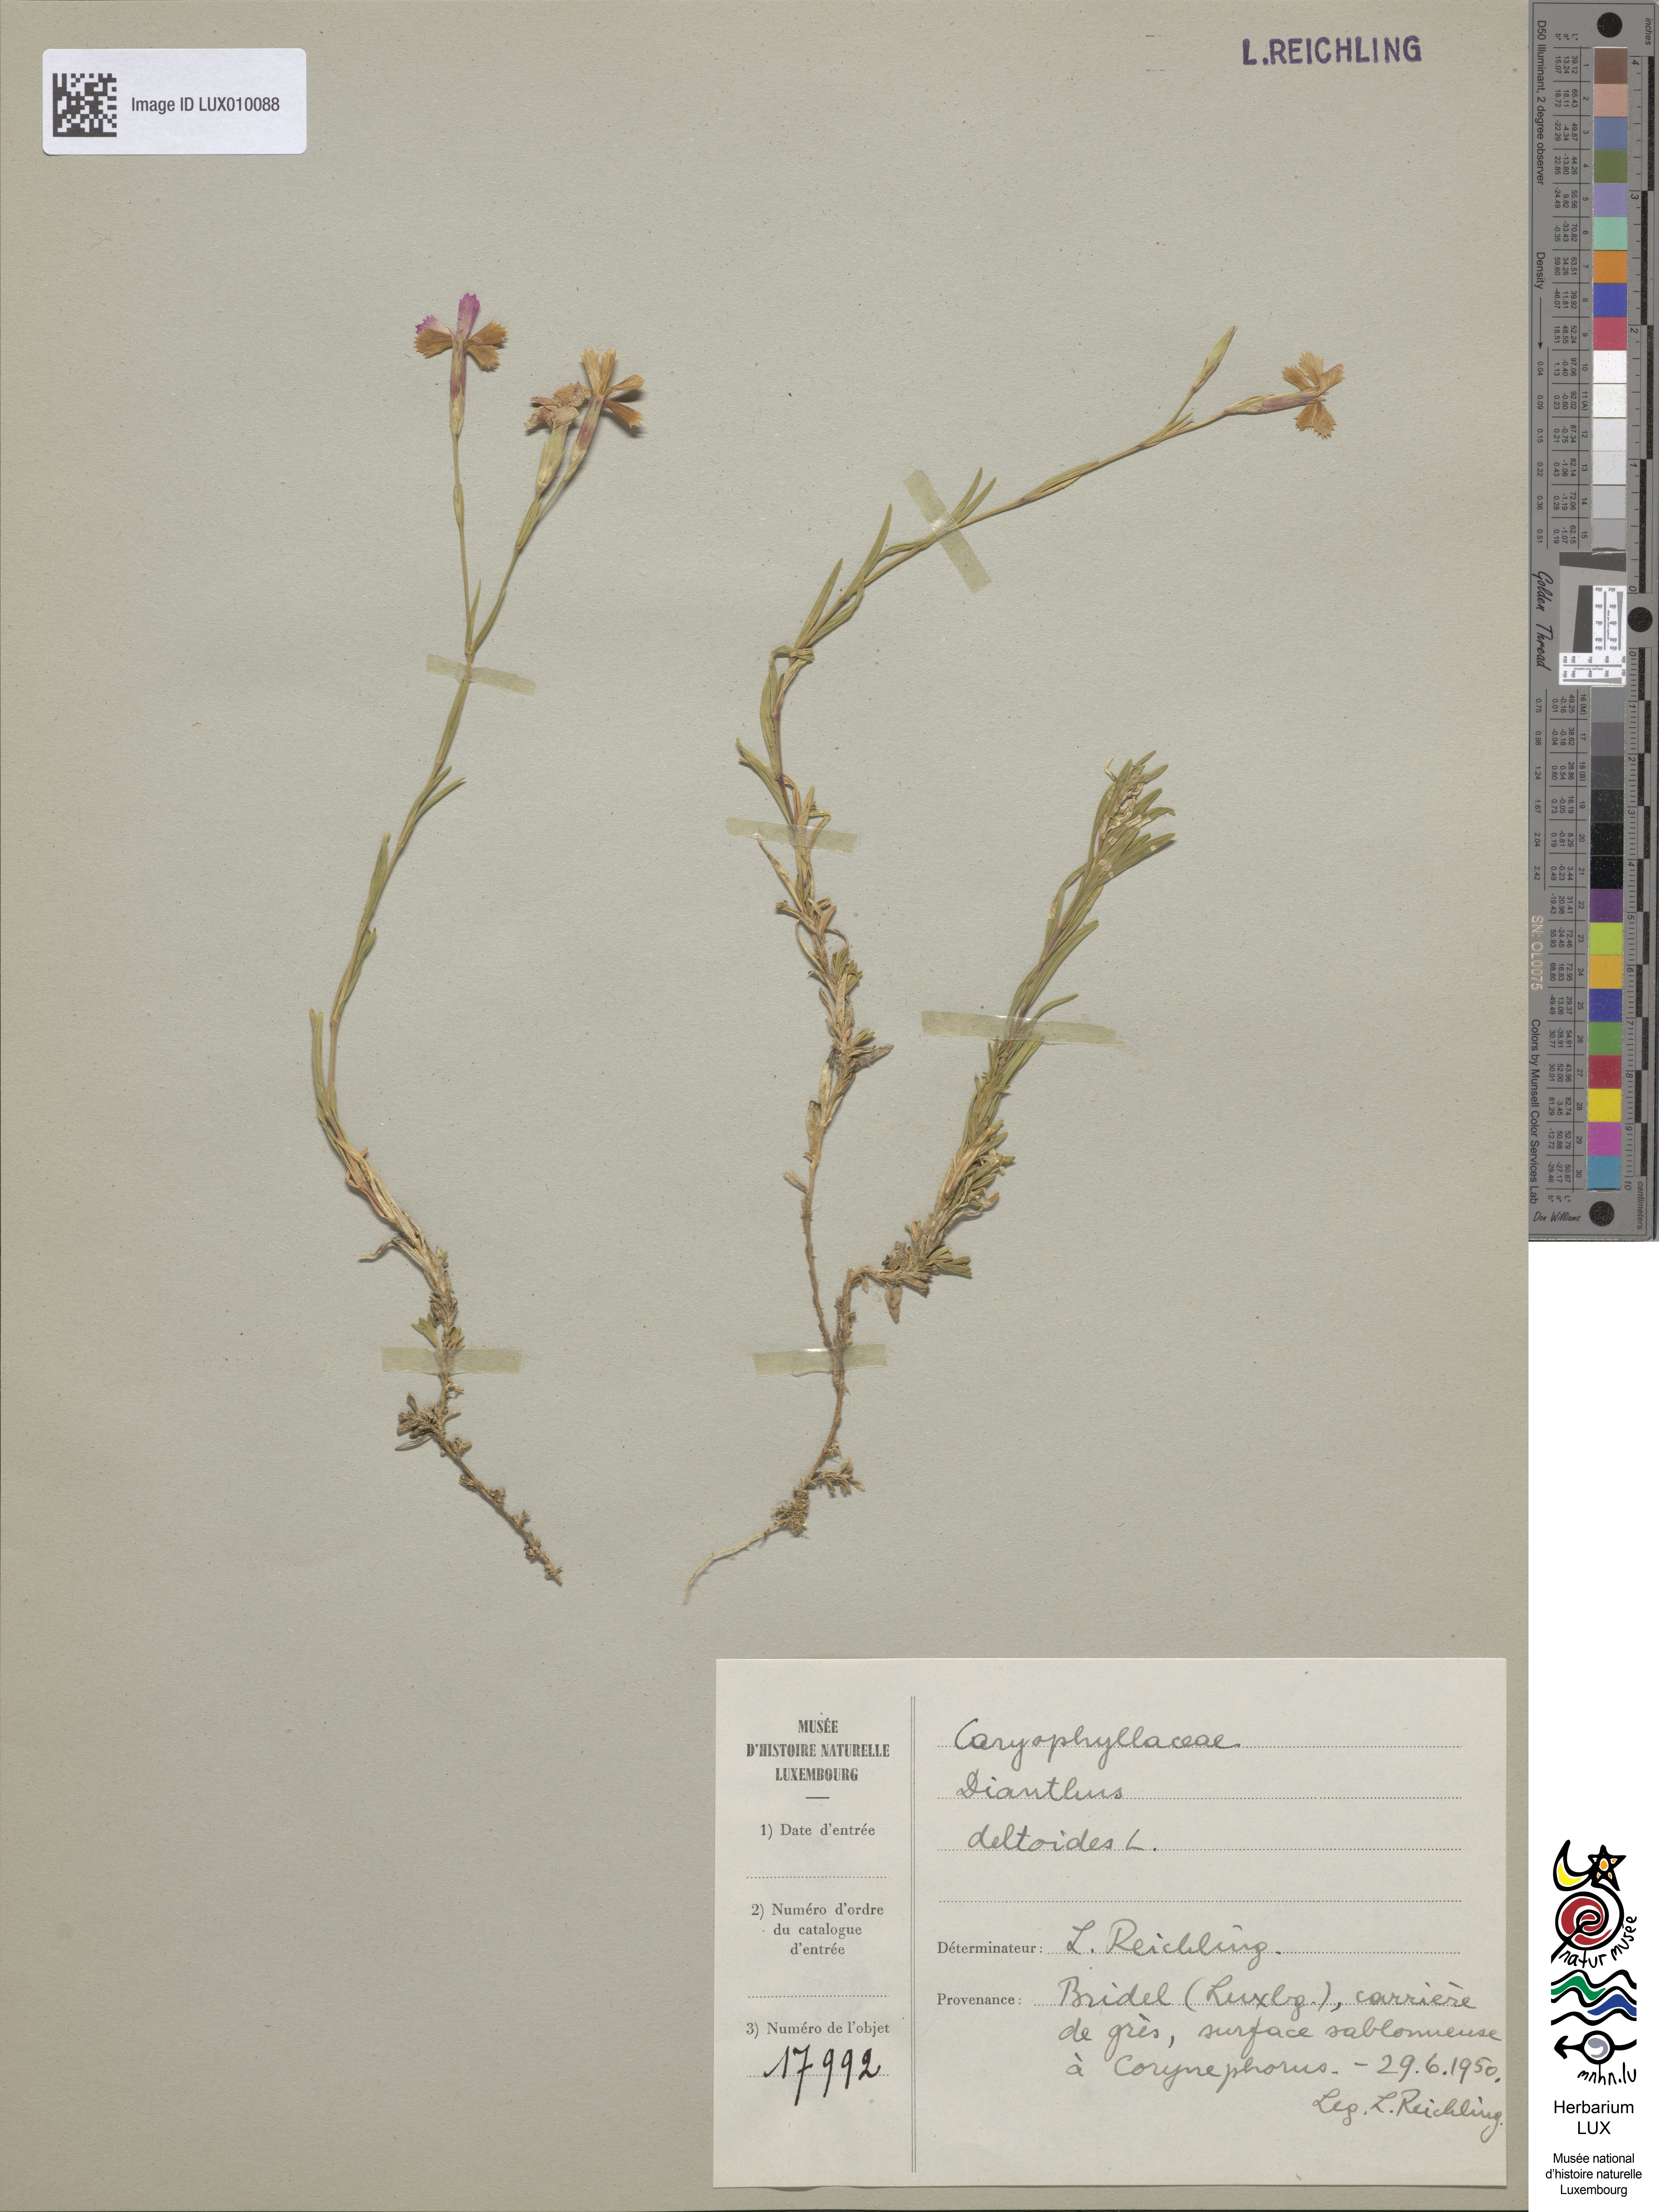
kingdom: Plantae
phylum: Tracheophyta
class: Magnoliopsida
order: Caryophyllales
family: Caryophyllaceae
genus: Dianthus
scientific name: Dianthus deltoides
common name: Maiden pink
